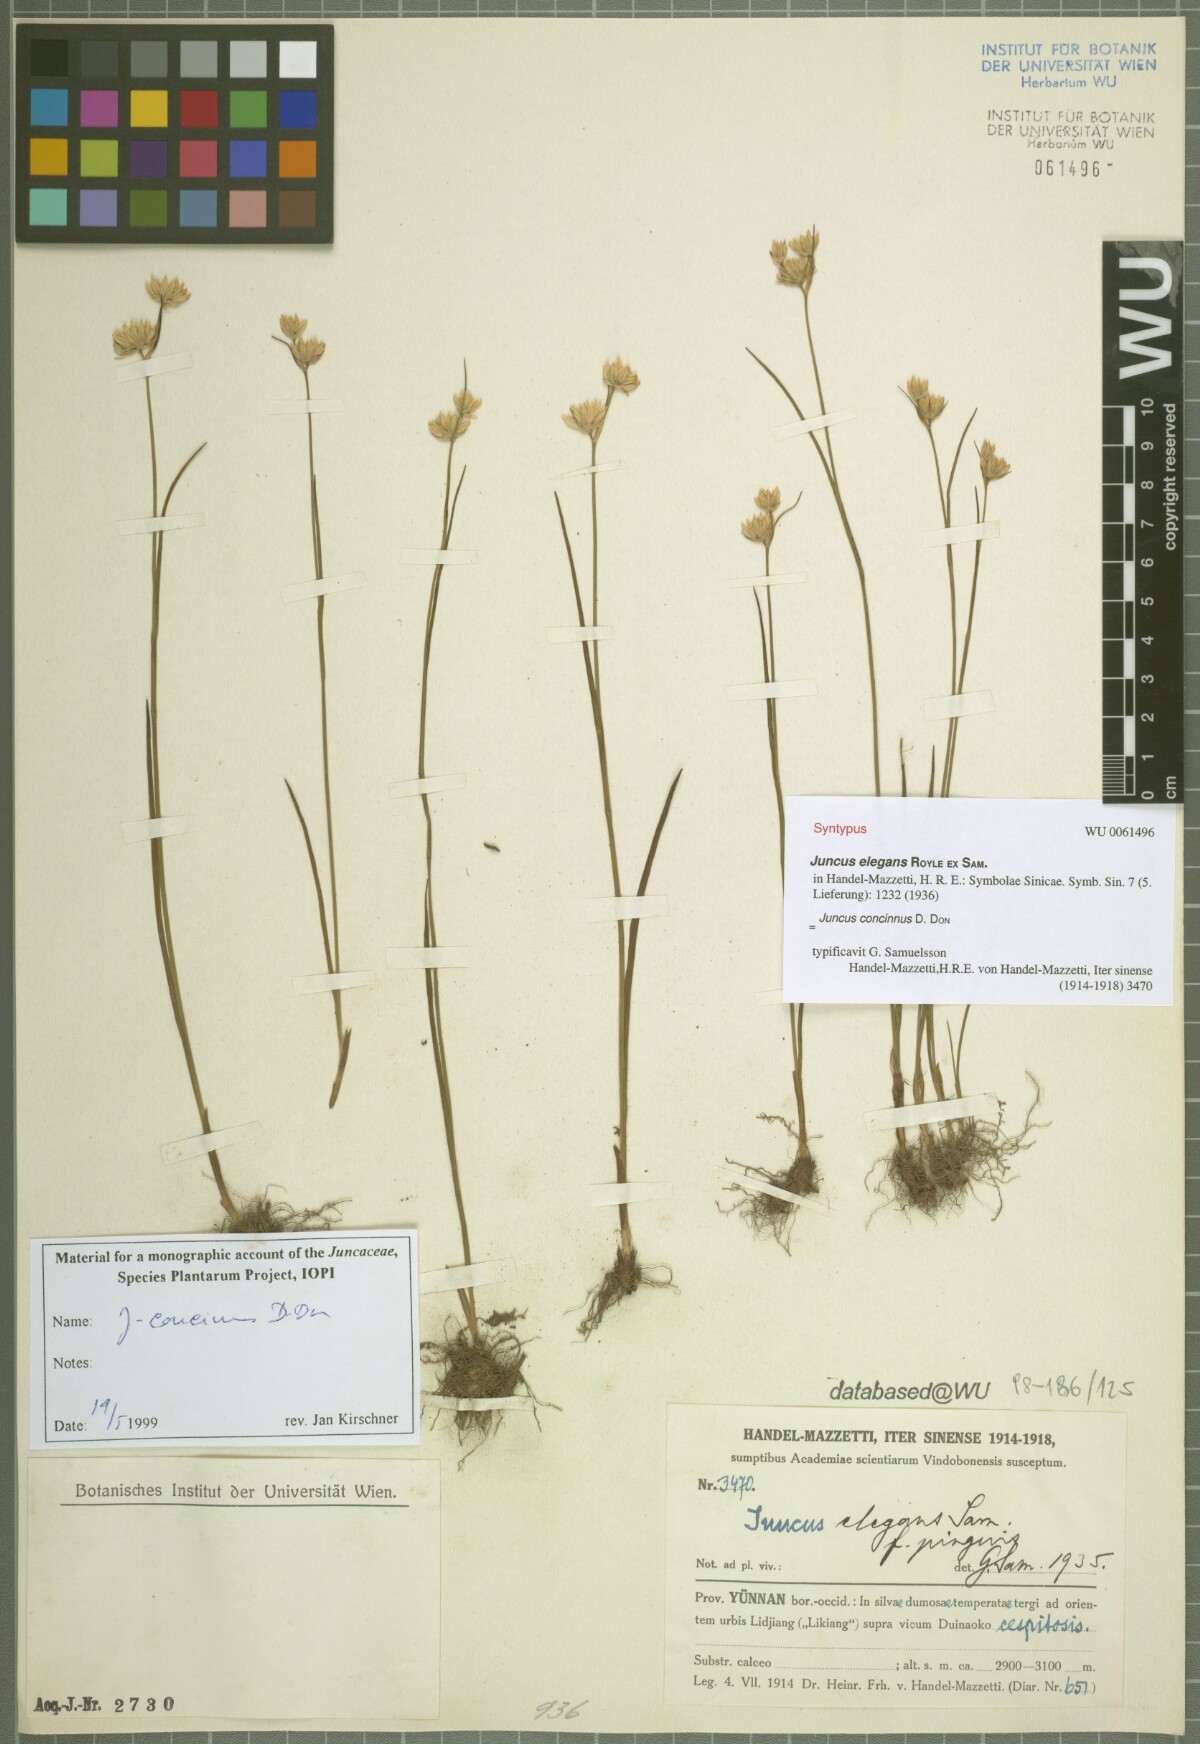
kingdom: Plantae
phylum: Tracheophyta
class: Liliopsida
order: Poales
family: Juncaceae
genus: Juncus
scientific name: Juncus concinnus
